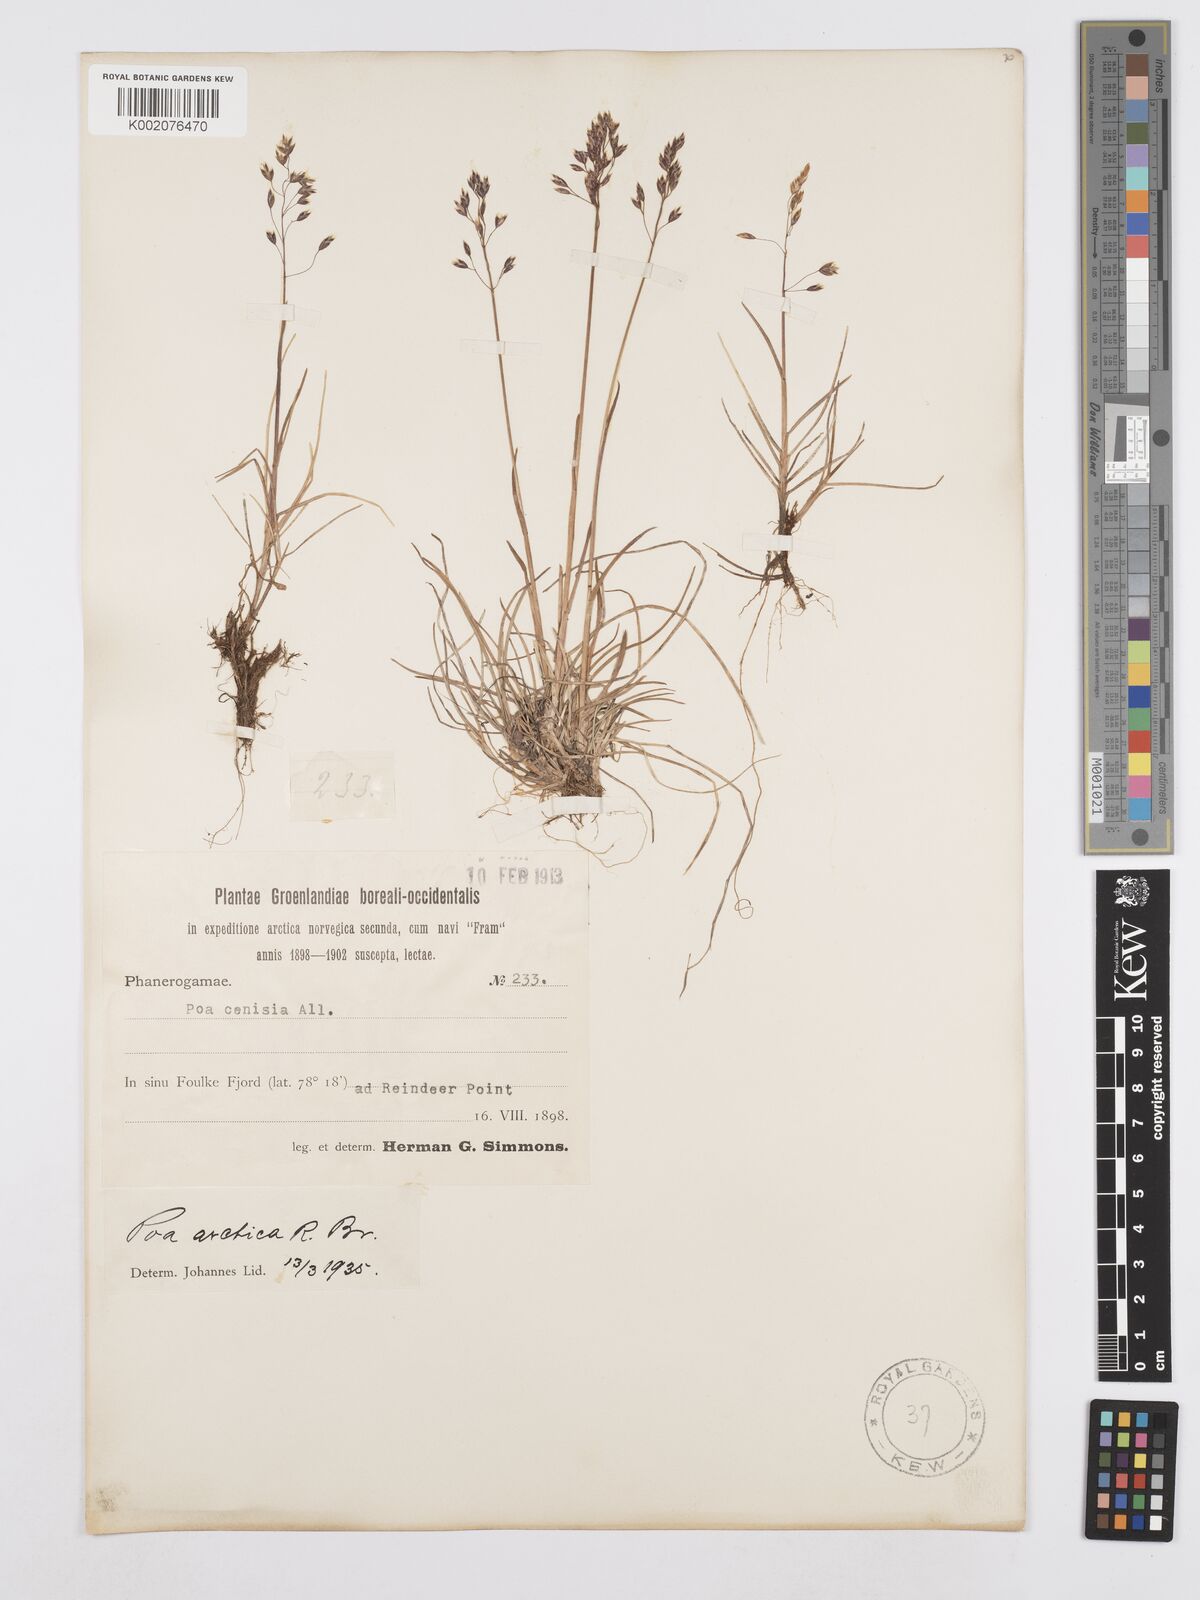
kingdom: Plantae
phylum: Tracheophyta
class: Liliopsida
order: Poales
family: Poaceae
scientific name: Poaceae
